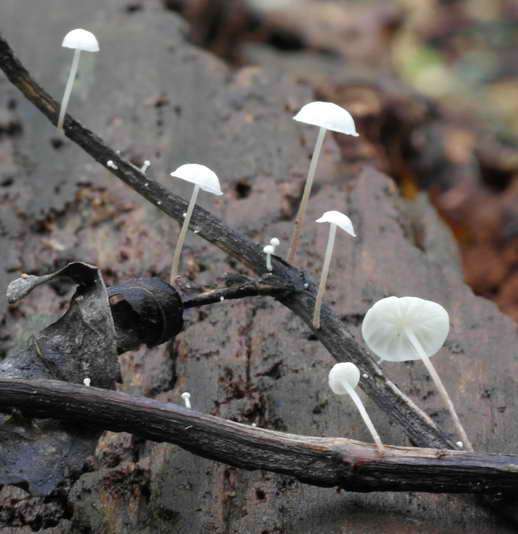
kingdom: Fungi
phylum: Basidiomycota
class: Agaricomycetes
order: Agaricales
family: Marasmiaceae
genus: Marasmius
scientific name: Marasmius epiphyllus
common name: blad-bruskhat
